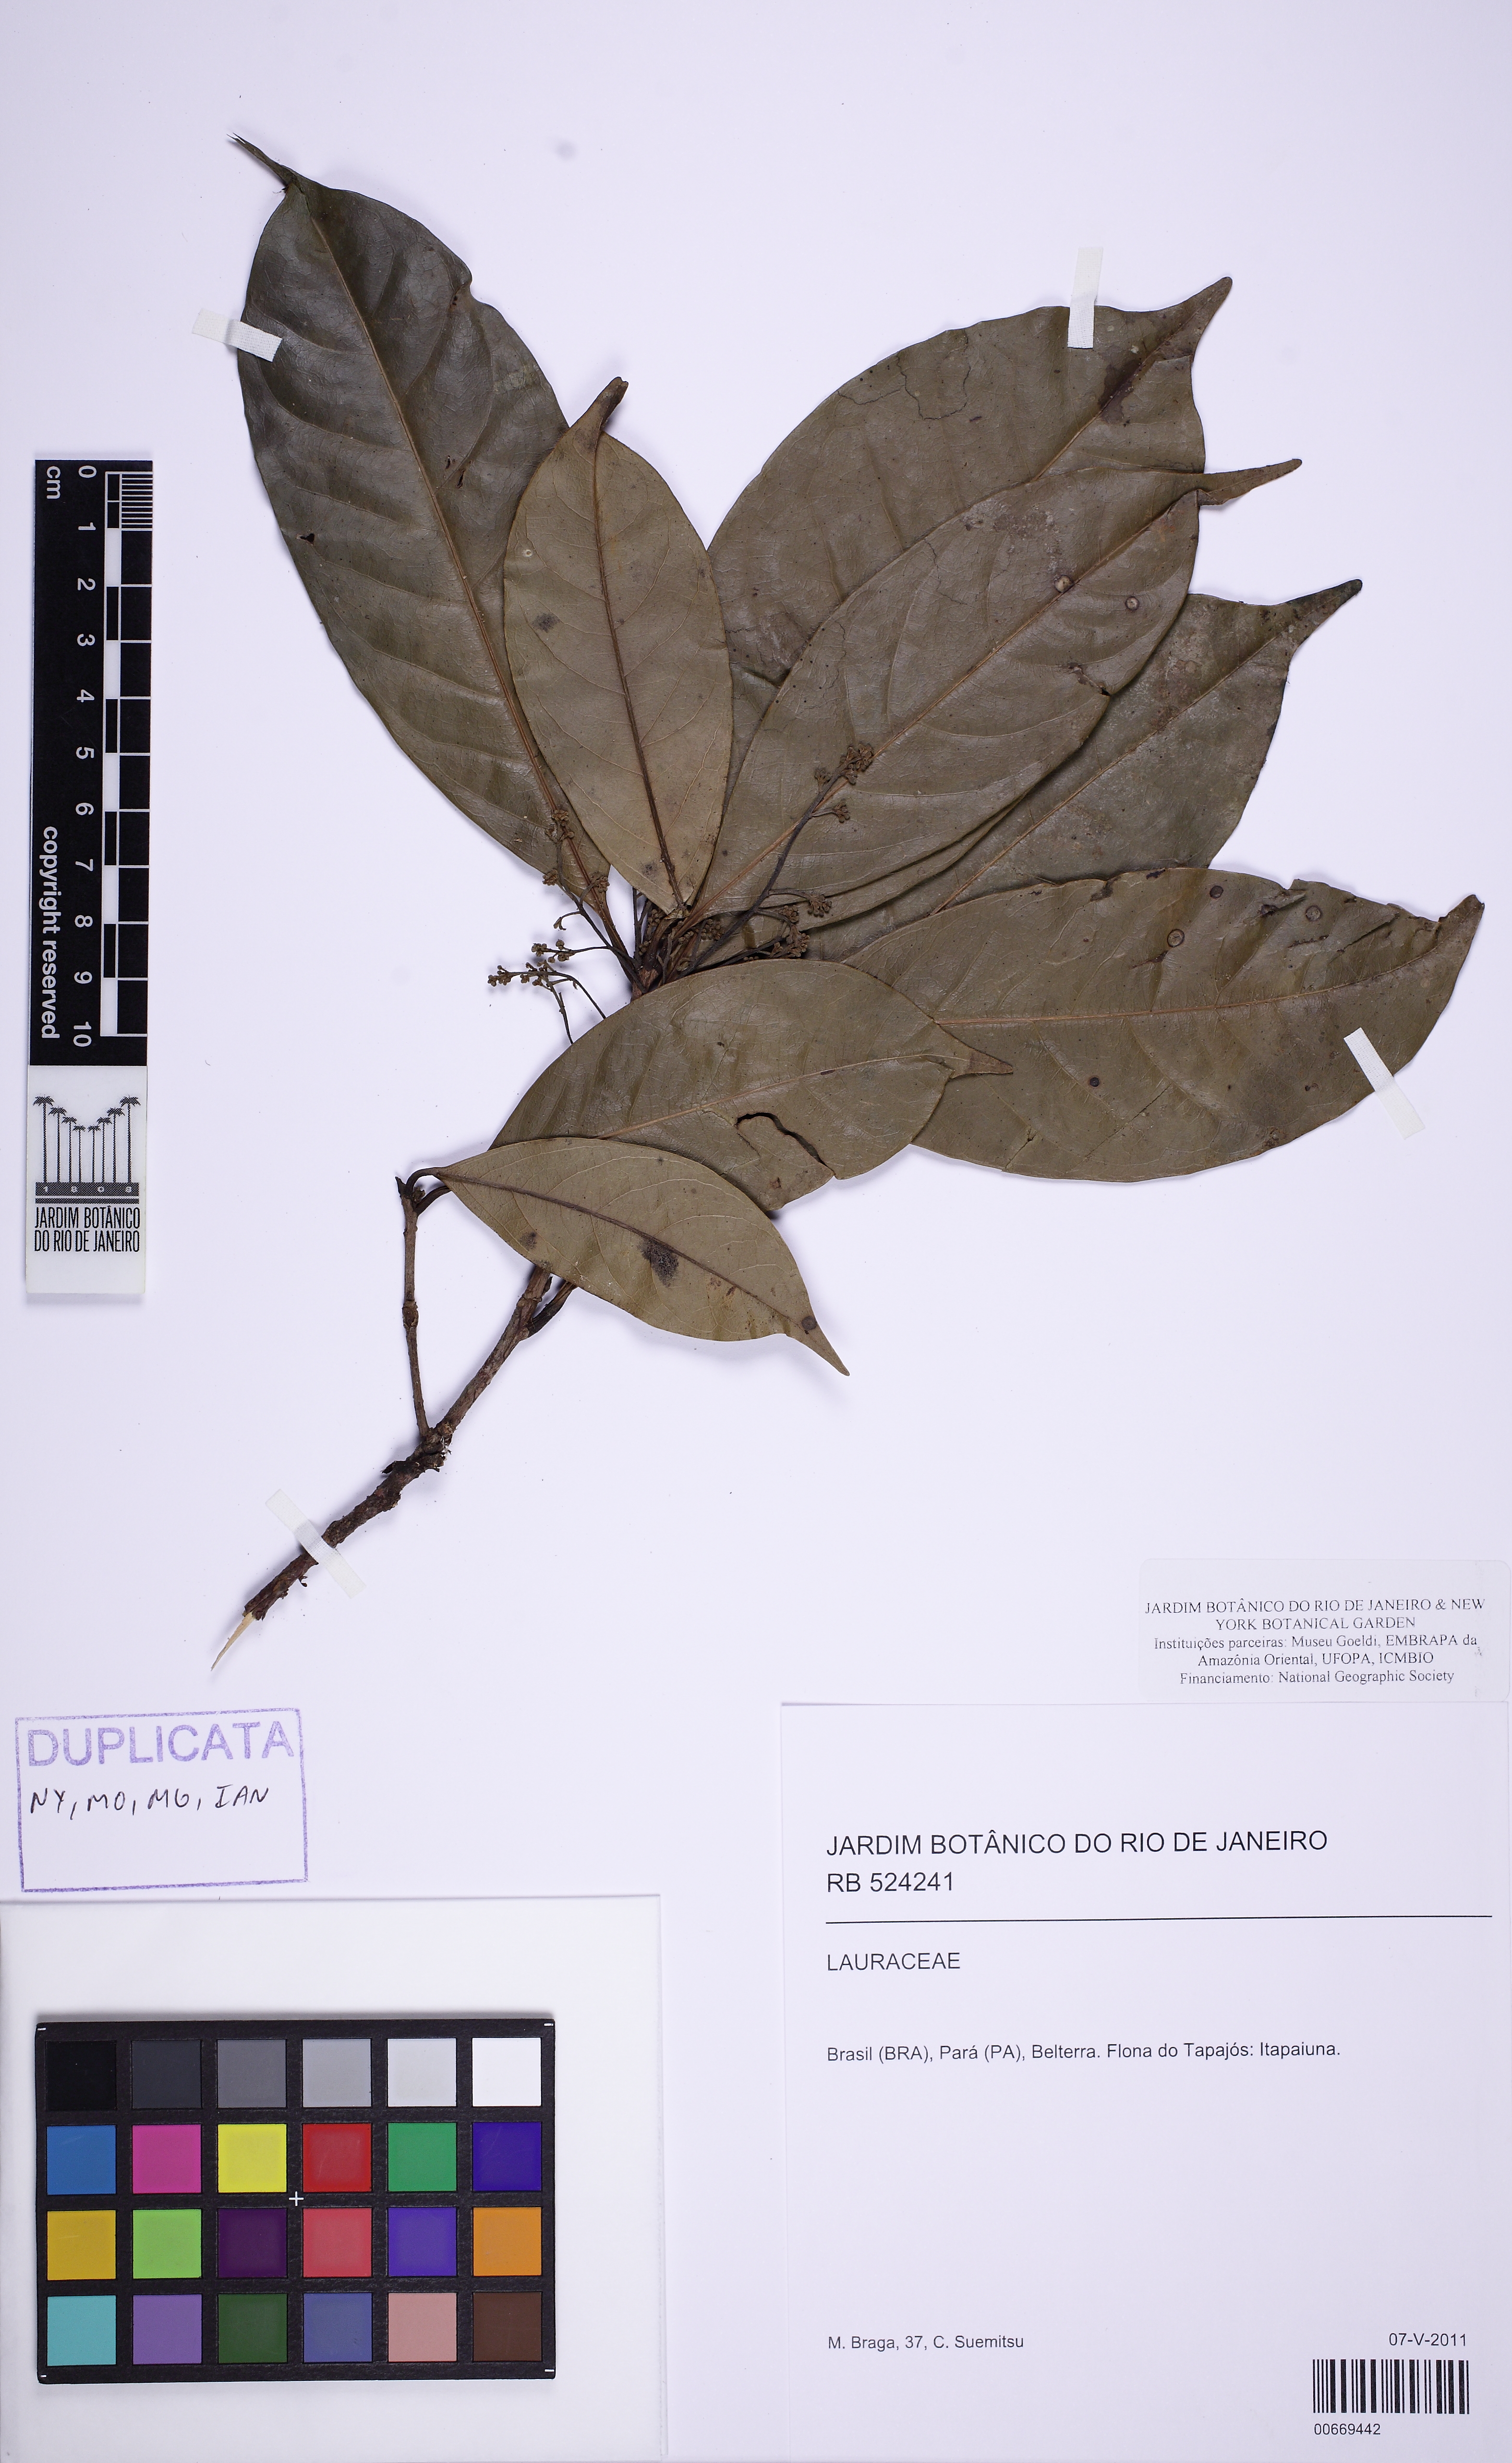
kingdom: Plantae
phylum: Tracheophyta
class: Magnoliopsida
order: Laurales
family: Lauraceae
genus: Licaria
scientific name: Licaria guianensis
